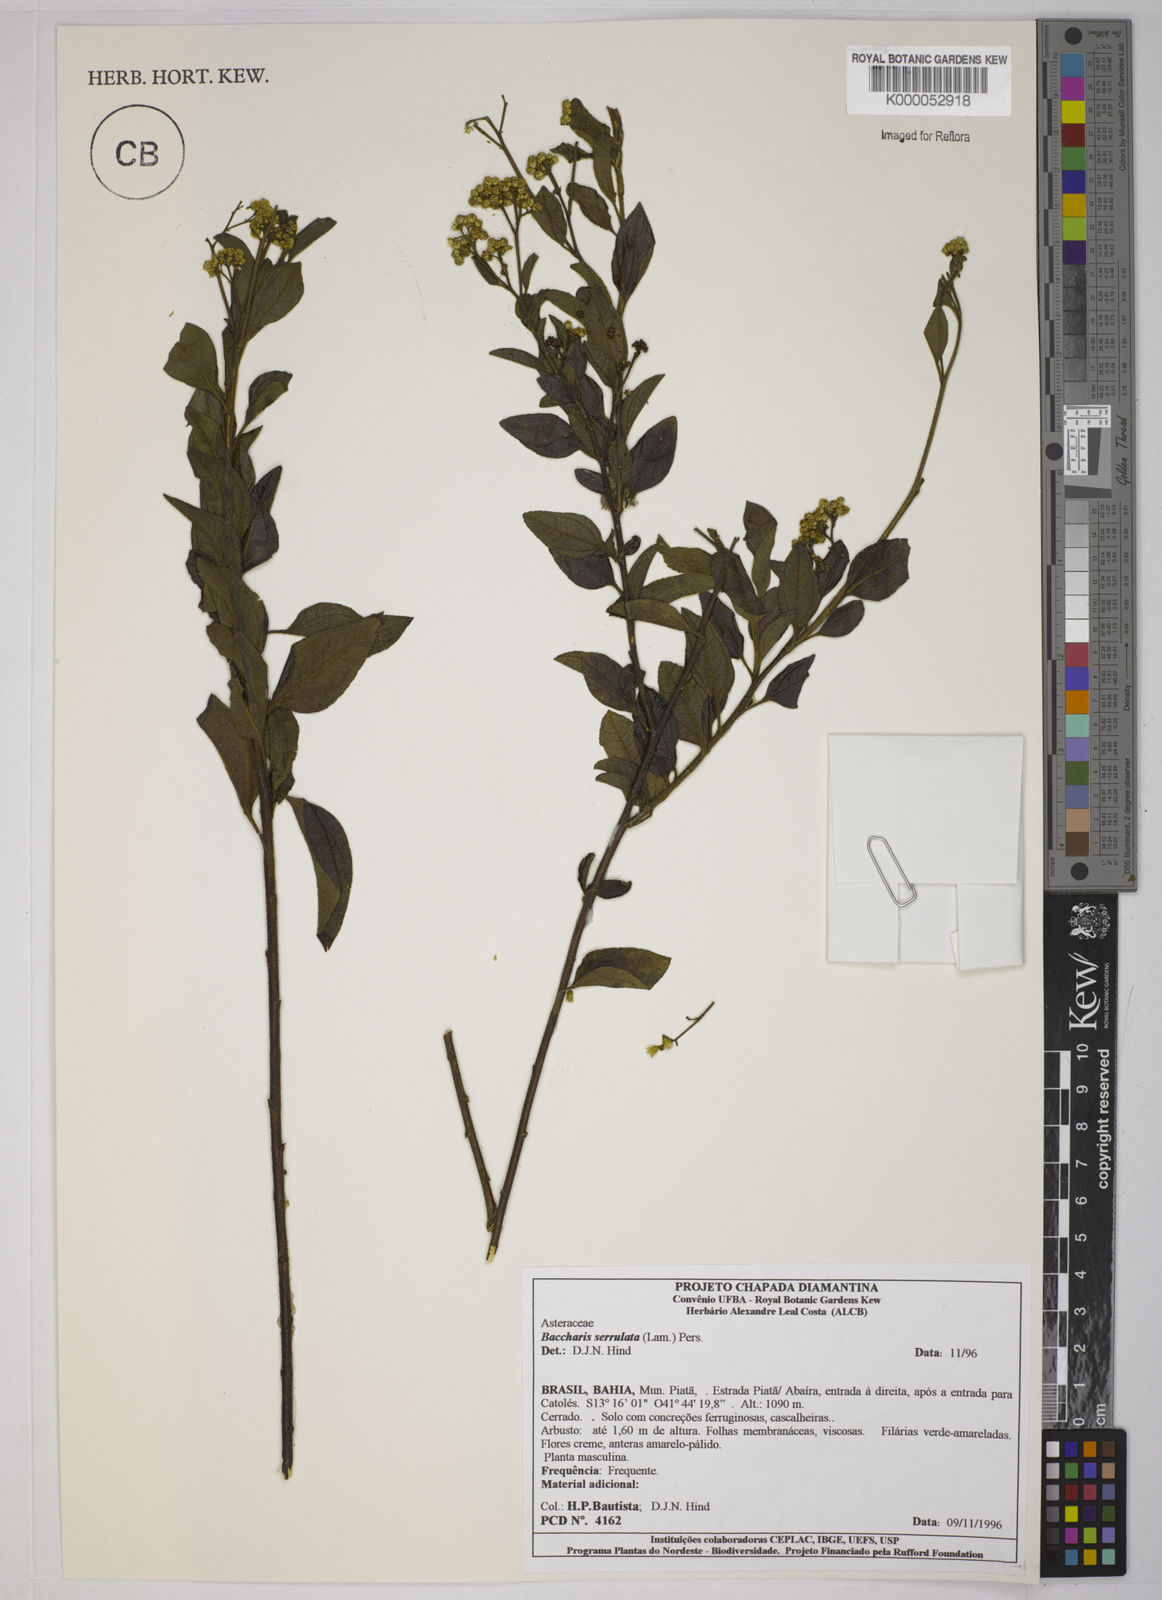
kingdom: Plantae
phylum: Tracheophyta
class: Magnoliopsida
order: Asterales
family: Asteraceae
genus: Baccharis
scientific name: Baccharis serrulata
